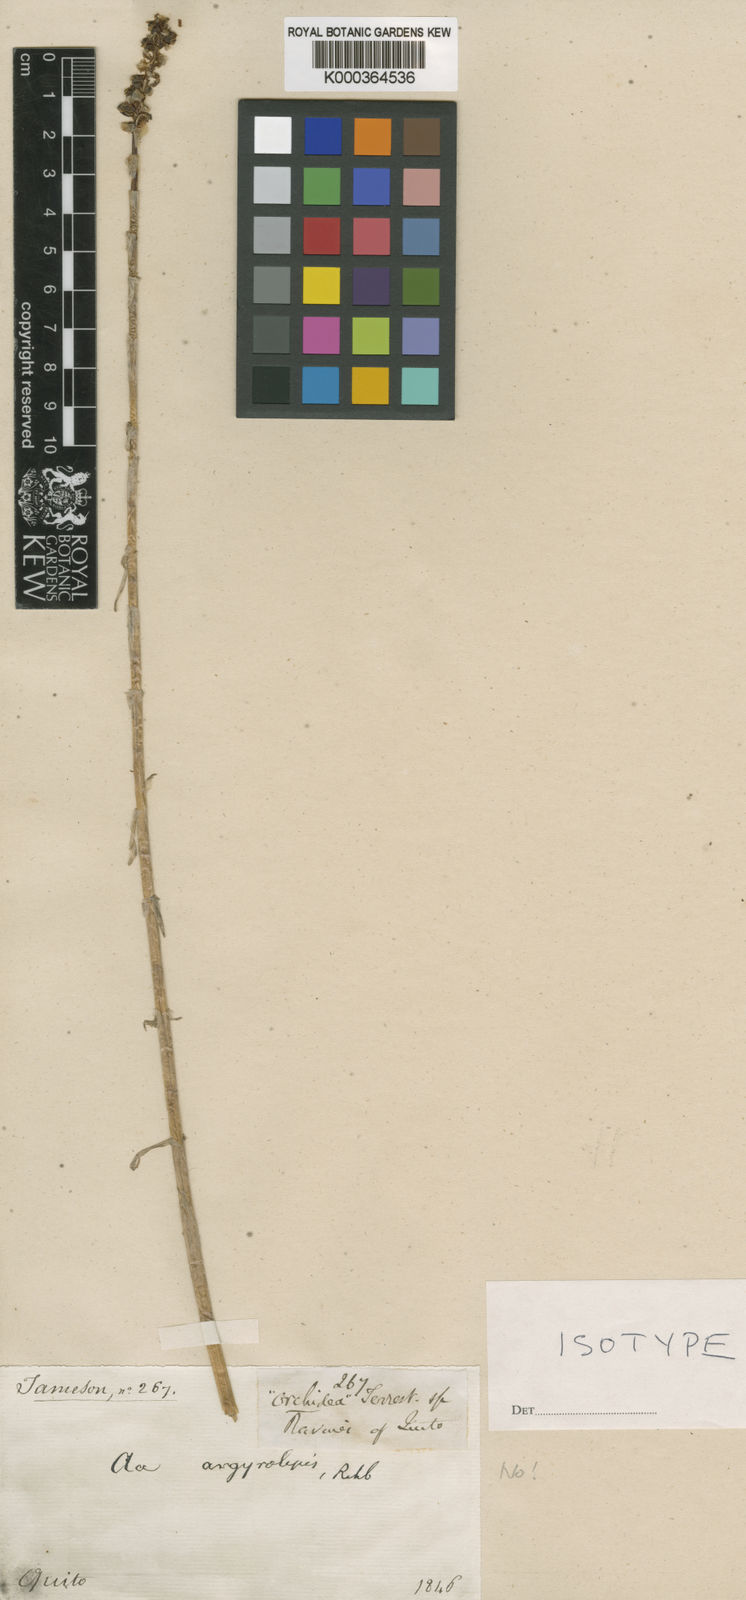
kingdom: Plantae
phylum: Tracheophyta
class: Liliopsida
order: Asparagales
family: Orchidaceae
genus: Aa
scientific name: Aa argyrolepis
